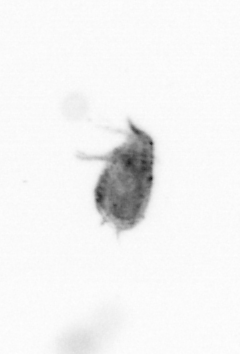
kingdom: Animalia
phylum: Arthropoda
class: Copepoda
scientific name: Copepoda
